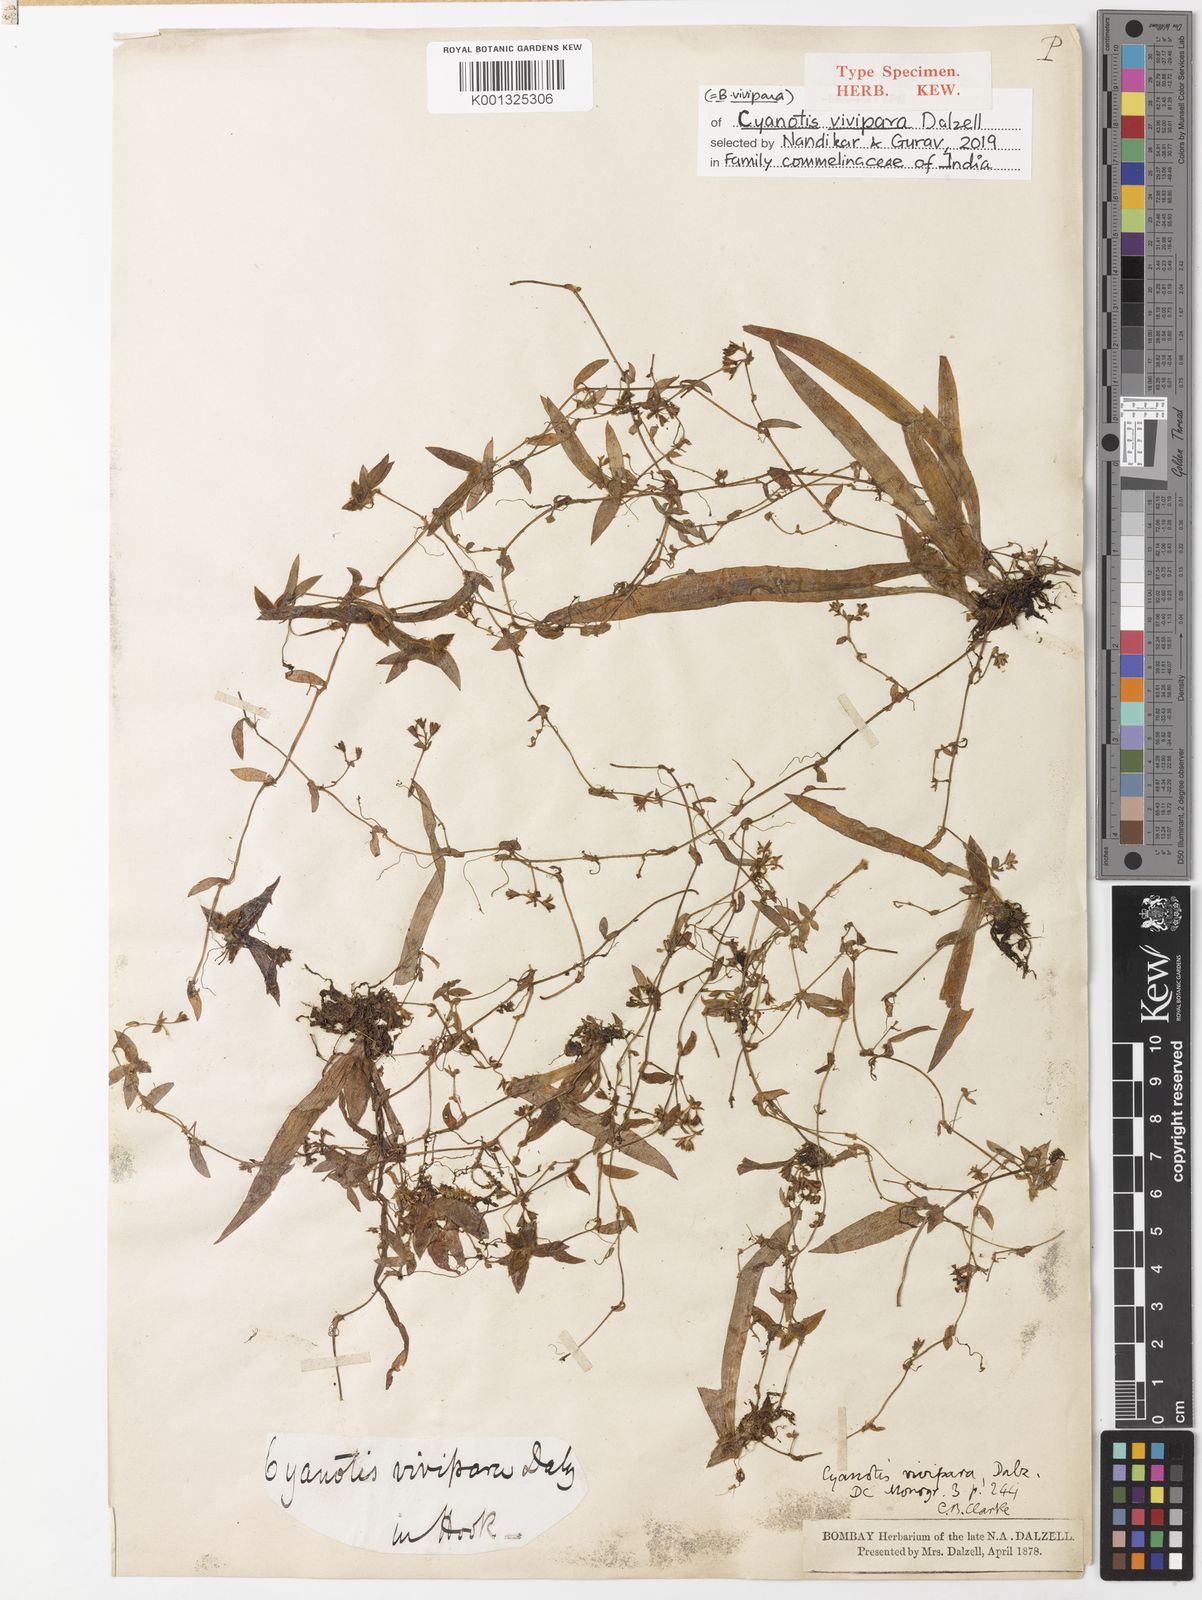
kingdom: Plantae
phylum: Tracheophyta
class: Liliopsida
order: Commelinales
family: Commelinaceae
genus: Cyanotis
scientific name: Cyanotis vivipara
